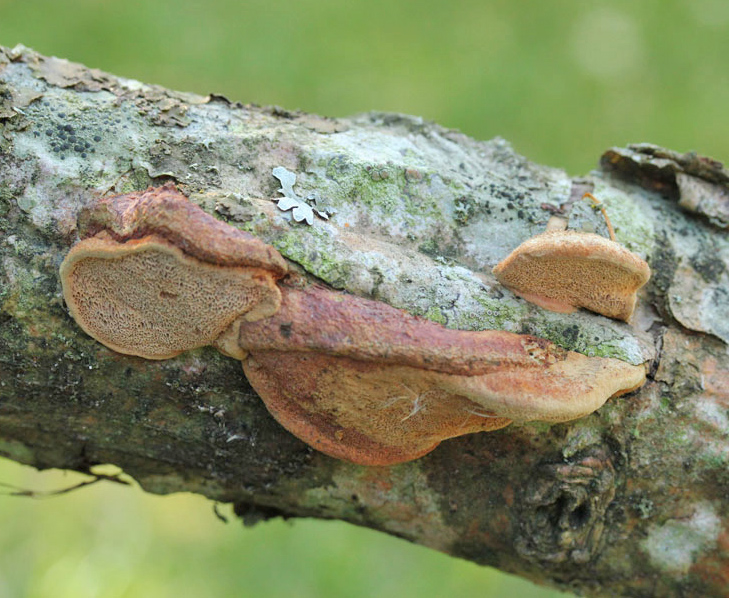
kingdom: Fungi
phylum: Basidiomycota
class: Agaricomycetes
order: Polyporales
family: Phanerochaetaceae
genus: Hapalopilus
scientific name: Hapalopilus rutilans
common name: rødlig okkerporesvamp
